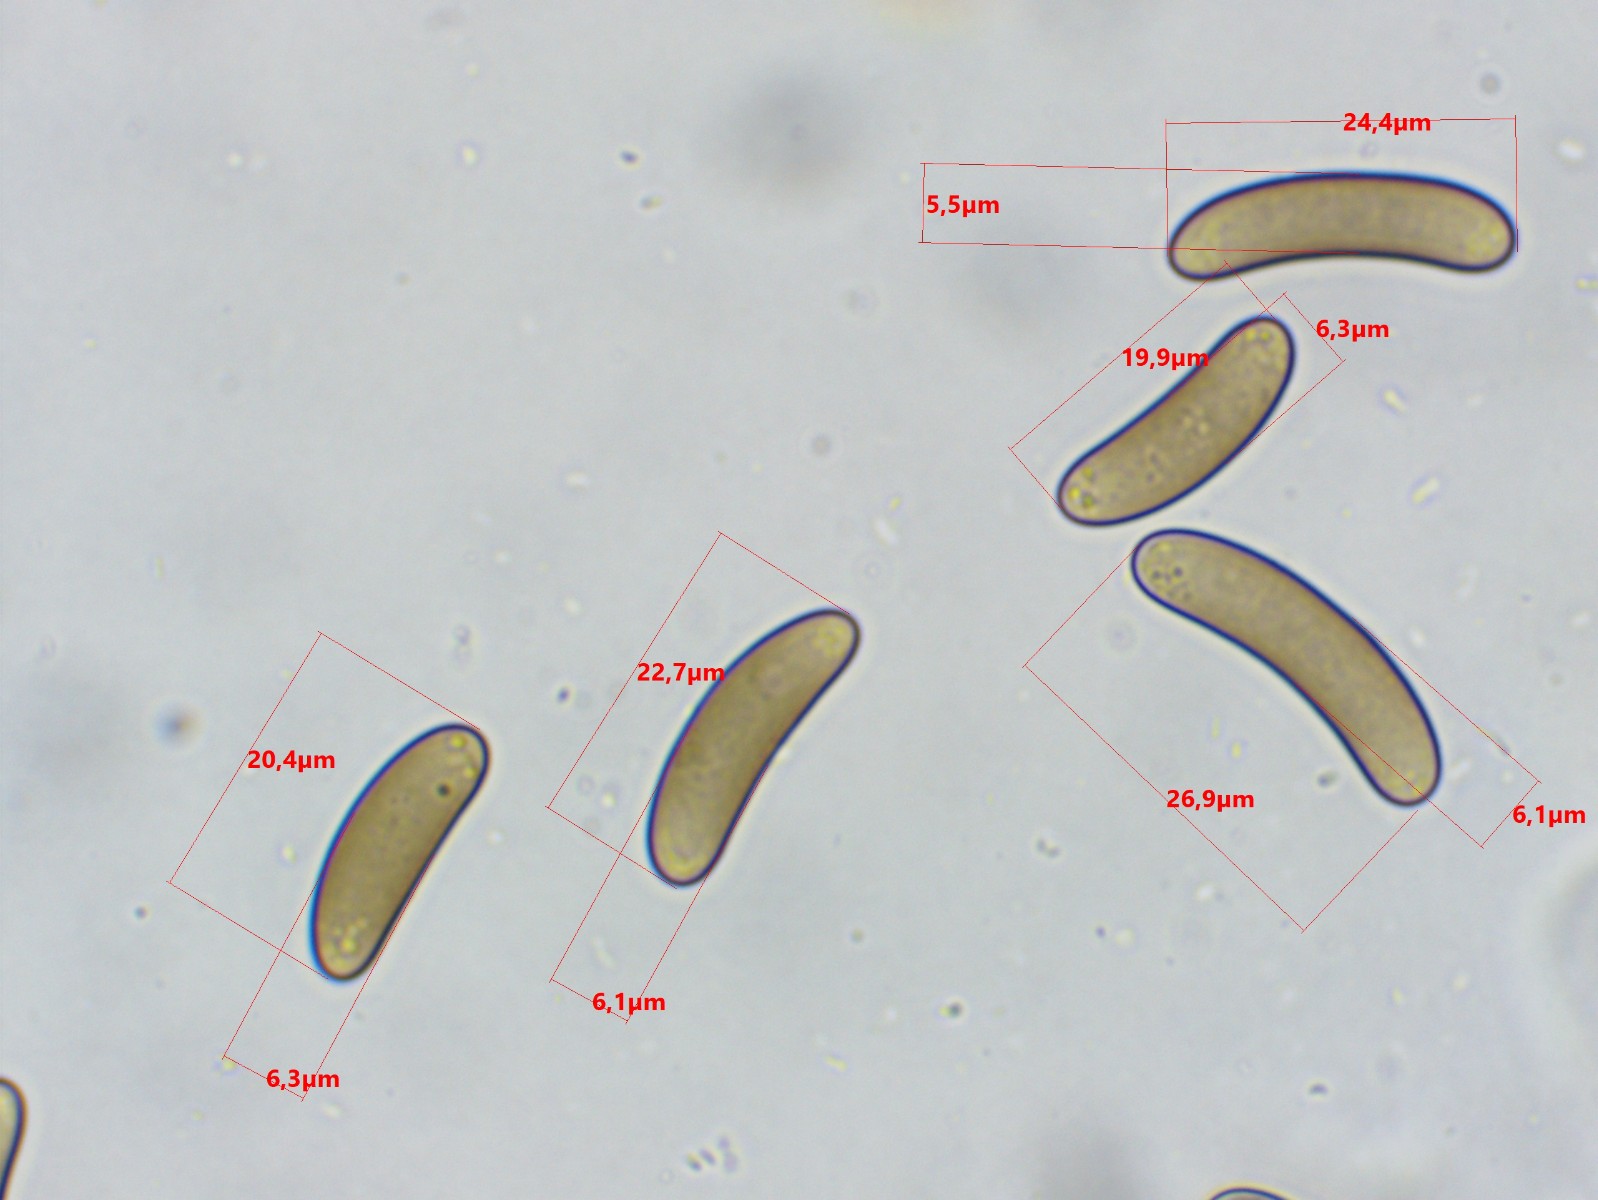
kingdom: Fungi
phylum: Ascomycota
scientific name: Ascomycota
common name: sæksvampe
